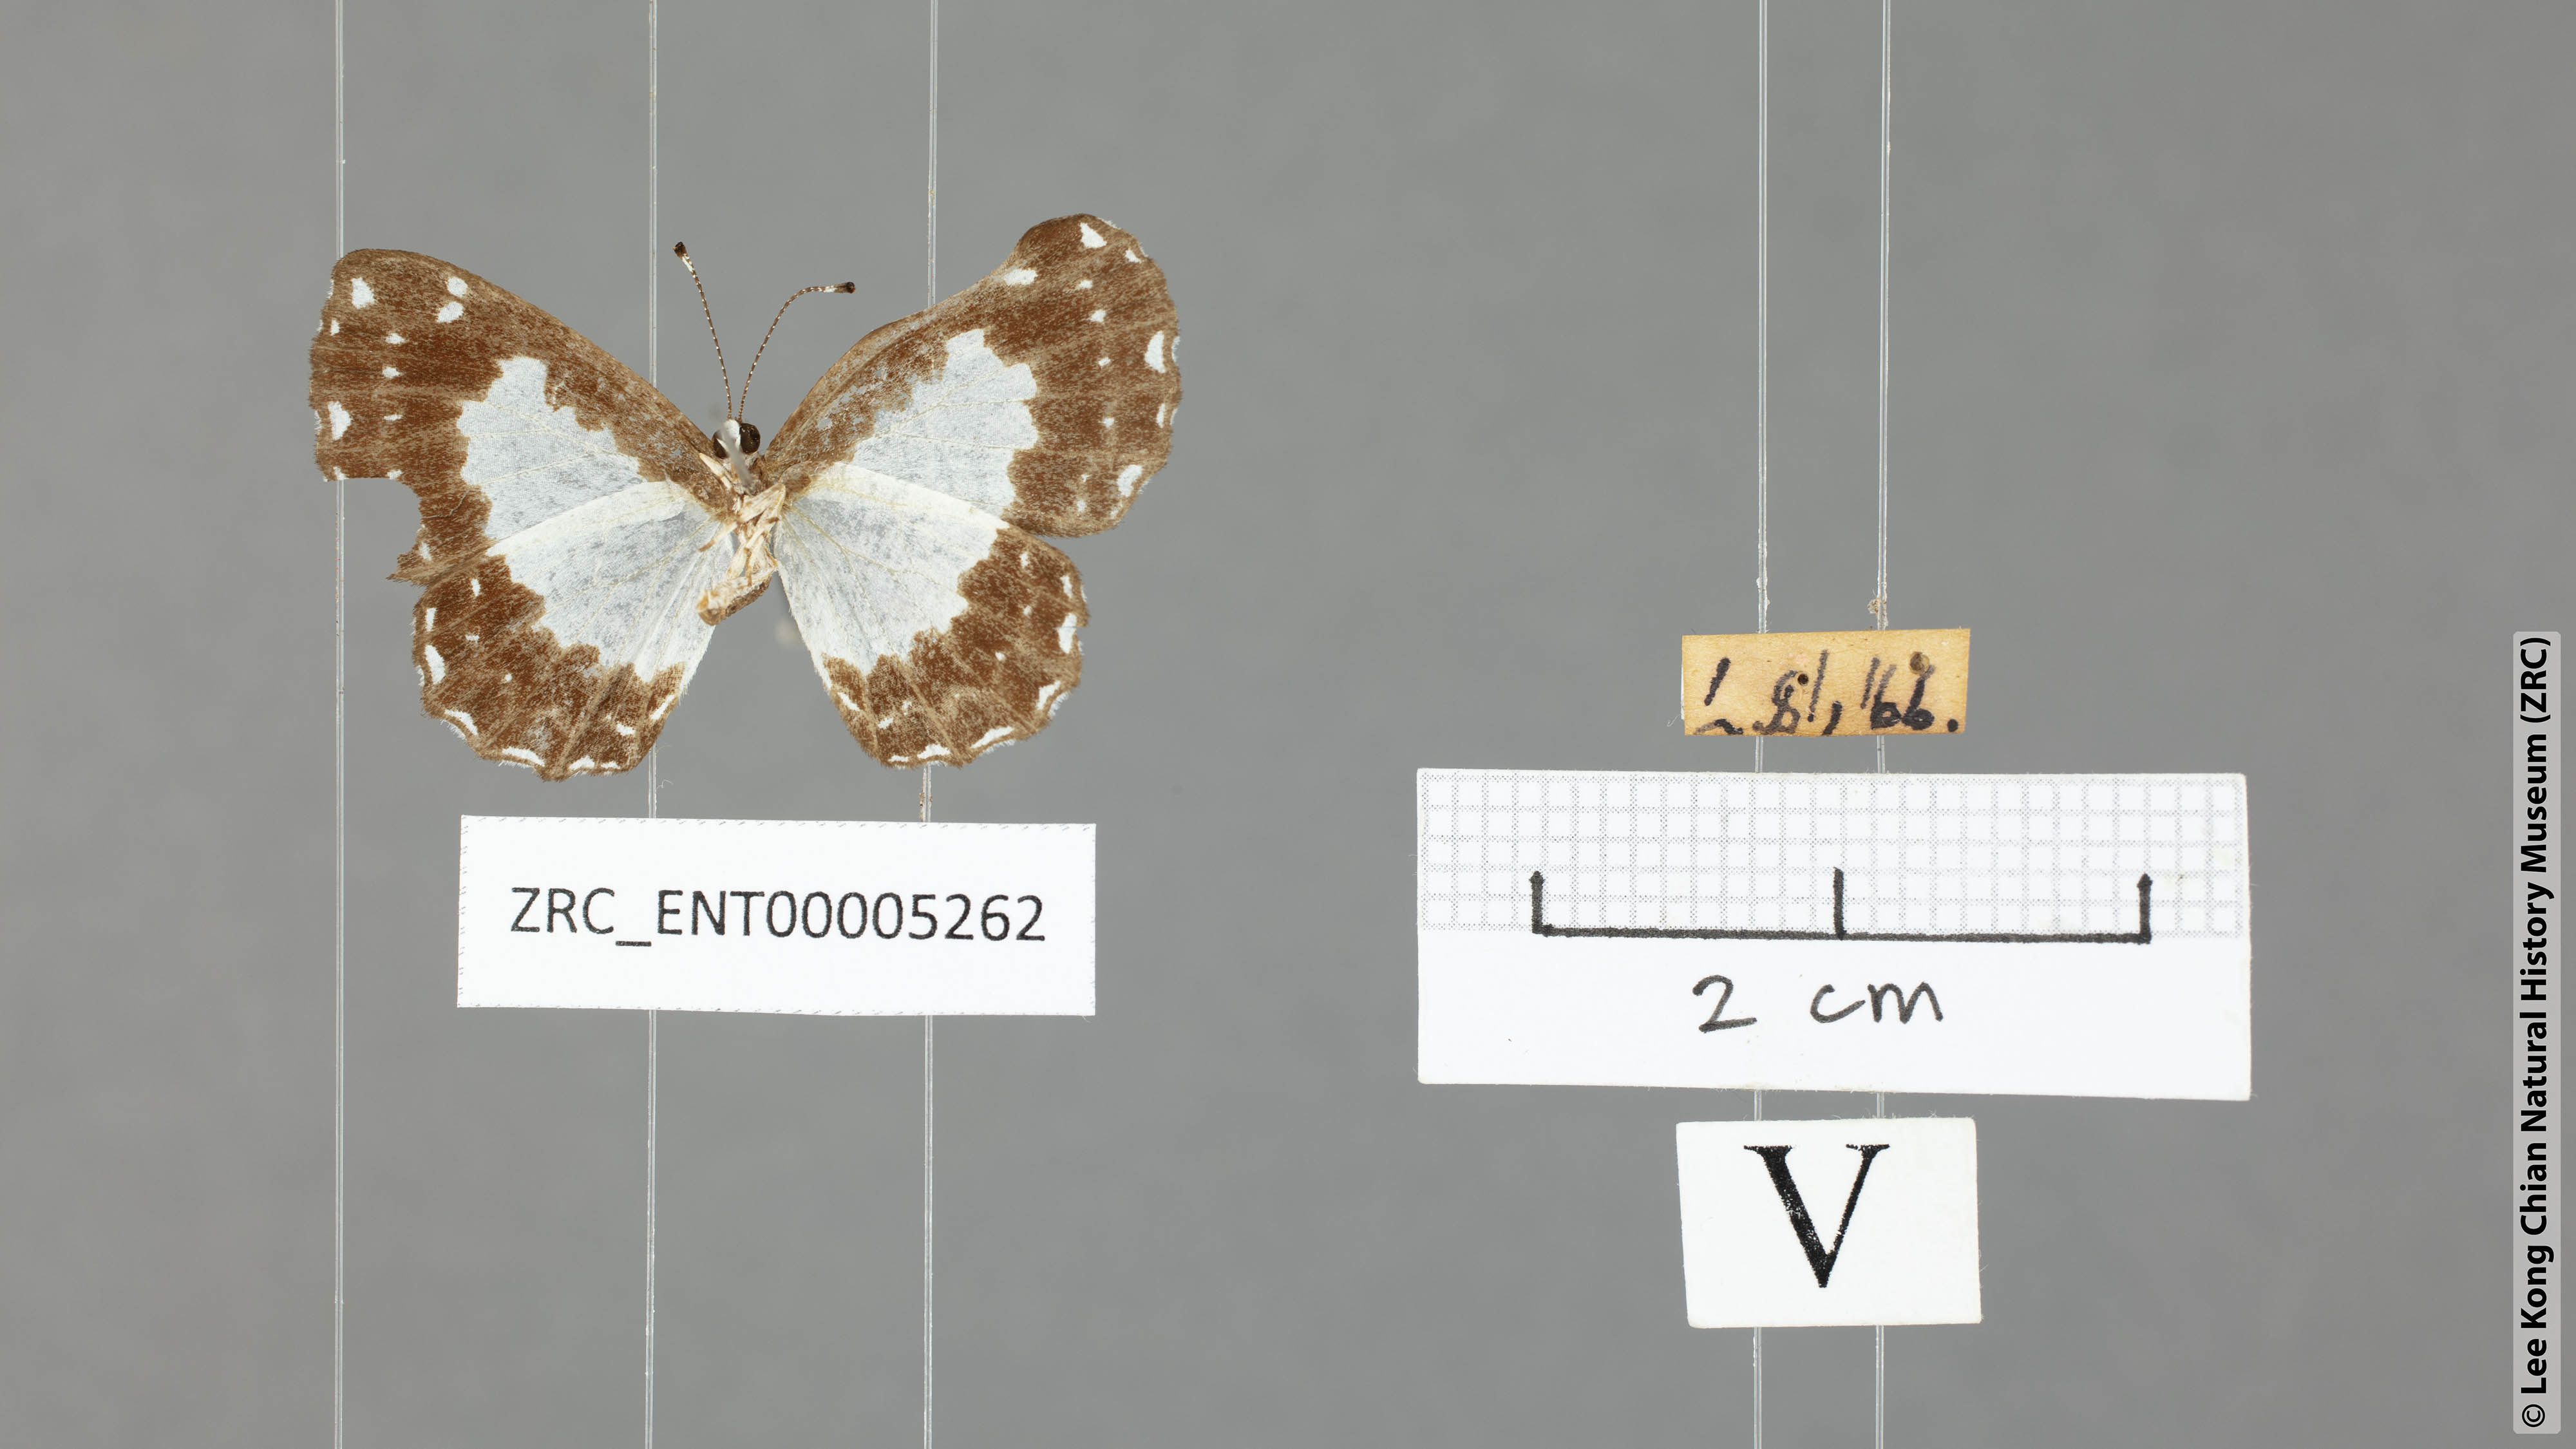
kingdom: Animalia
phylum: Arthropoda
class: Insecta
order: Lepidoptera
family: Riodinidae
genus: Stiboges
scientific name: Stiboges nymphidia
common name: Columbine
